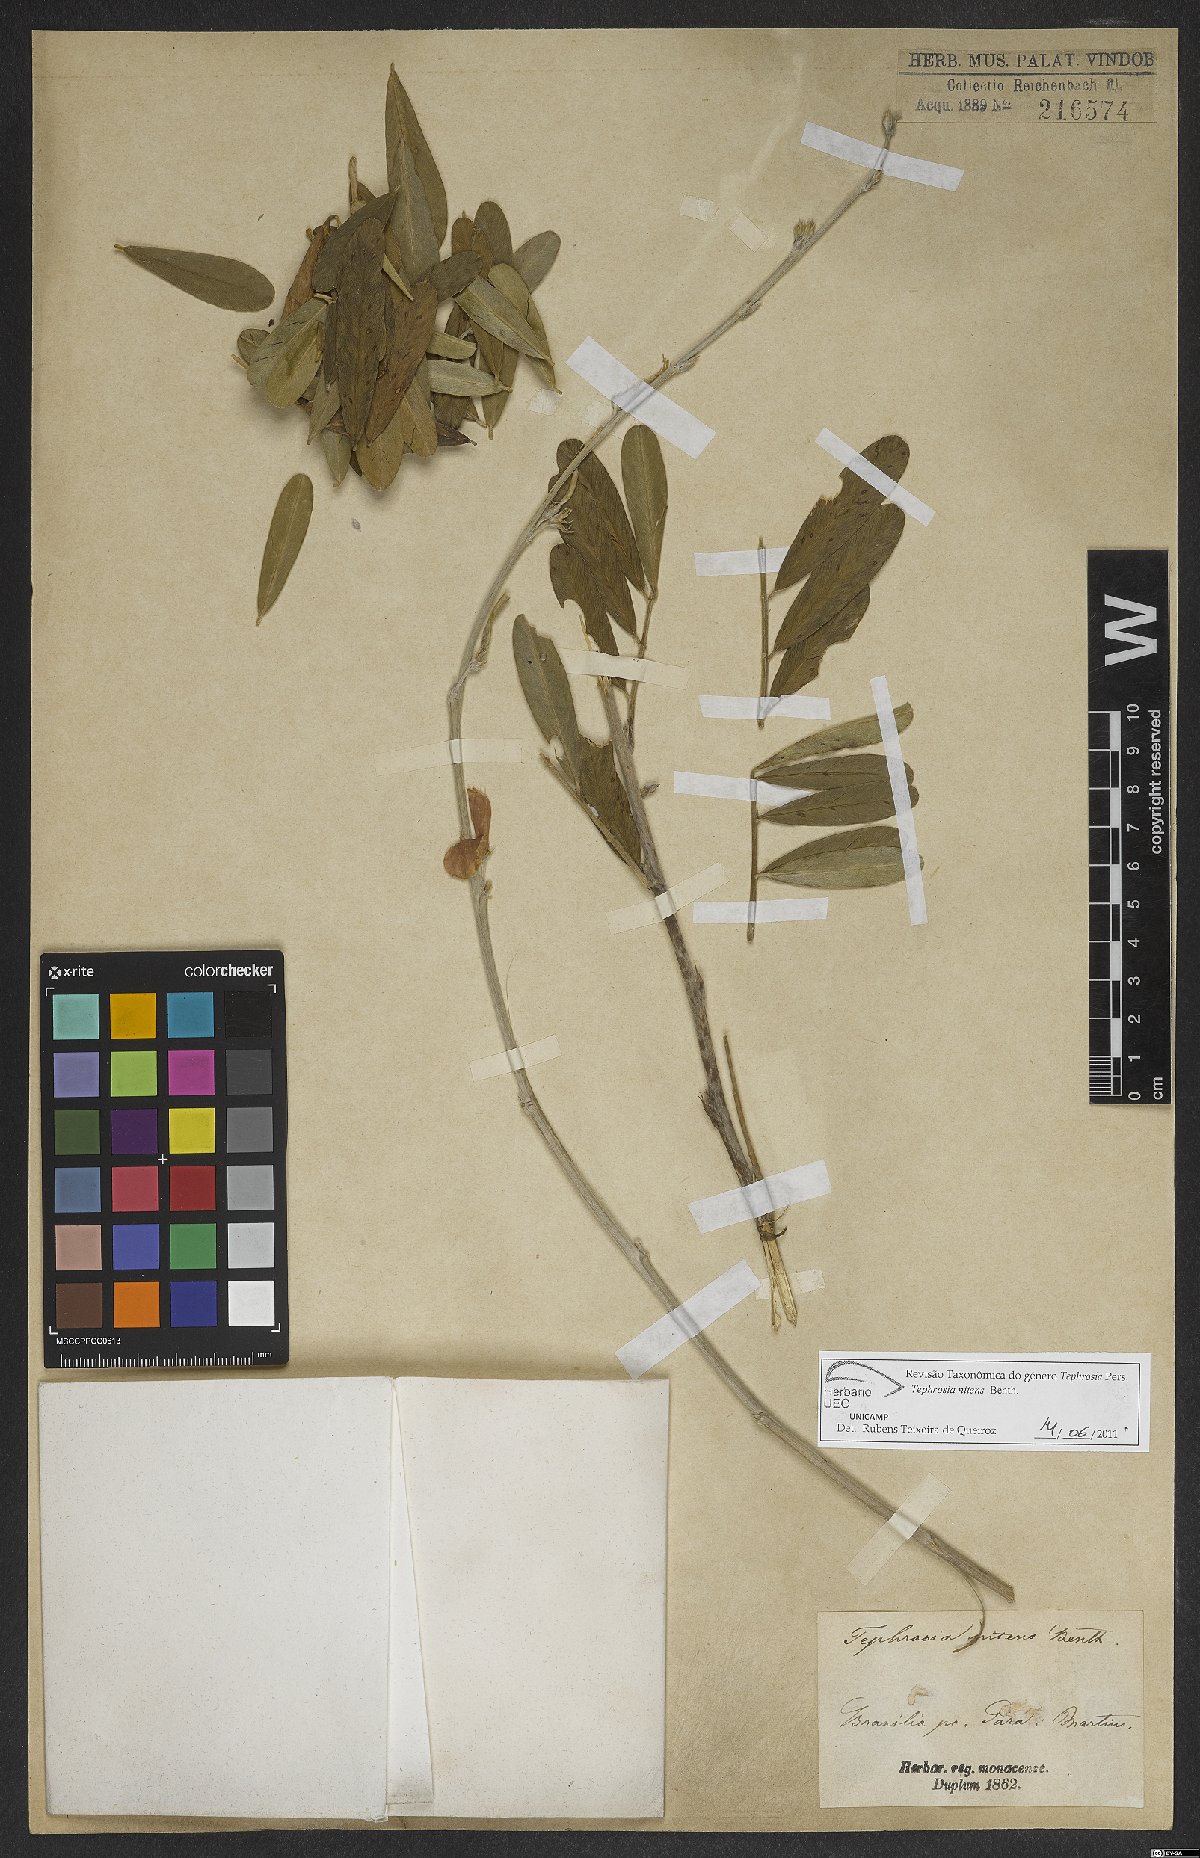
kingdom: Plantae
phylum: Tracheophyta
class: Magnoliopsida
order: Fabales
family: Fabaceae
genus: Tephrosia
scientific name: Tephrosia nitens
